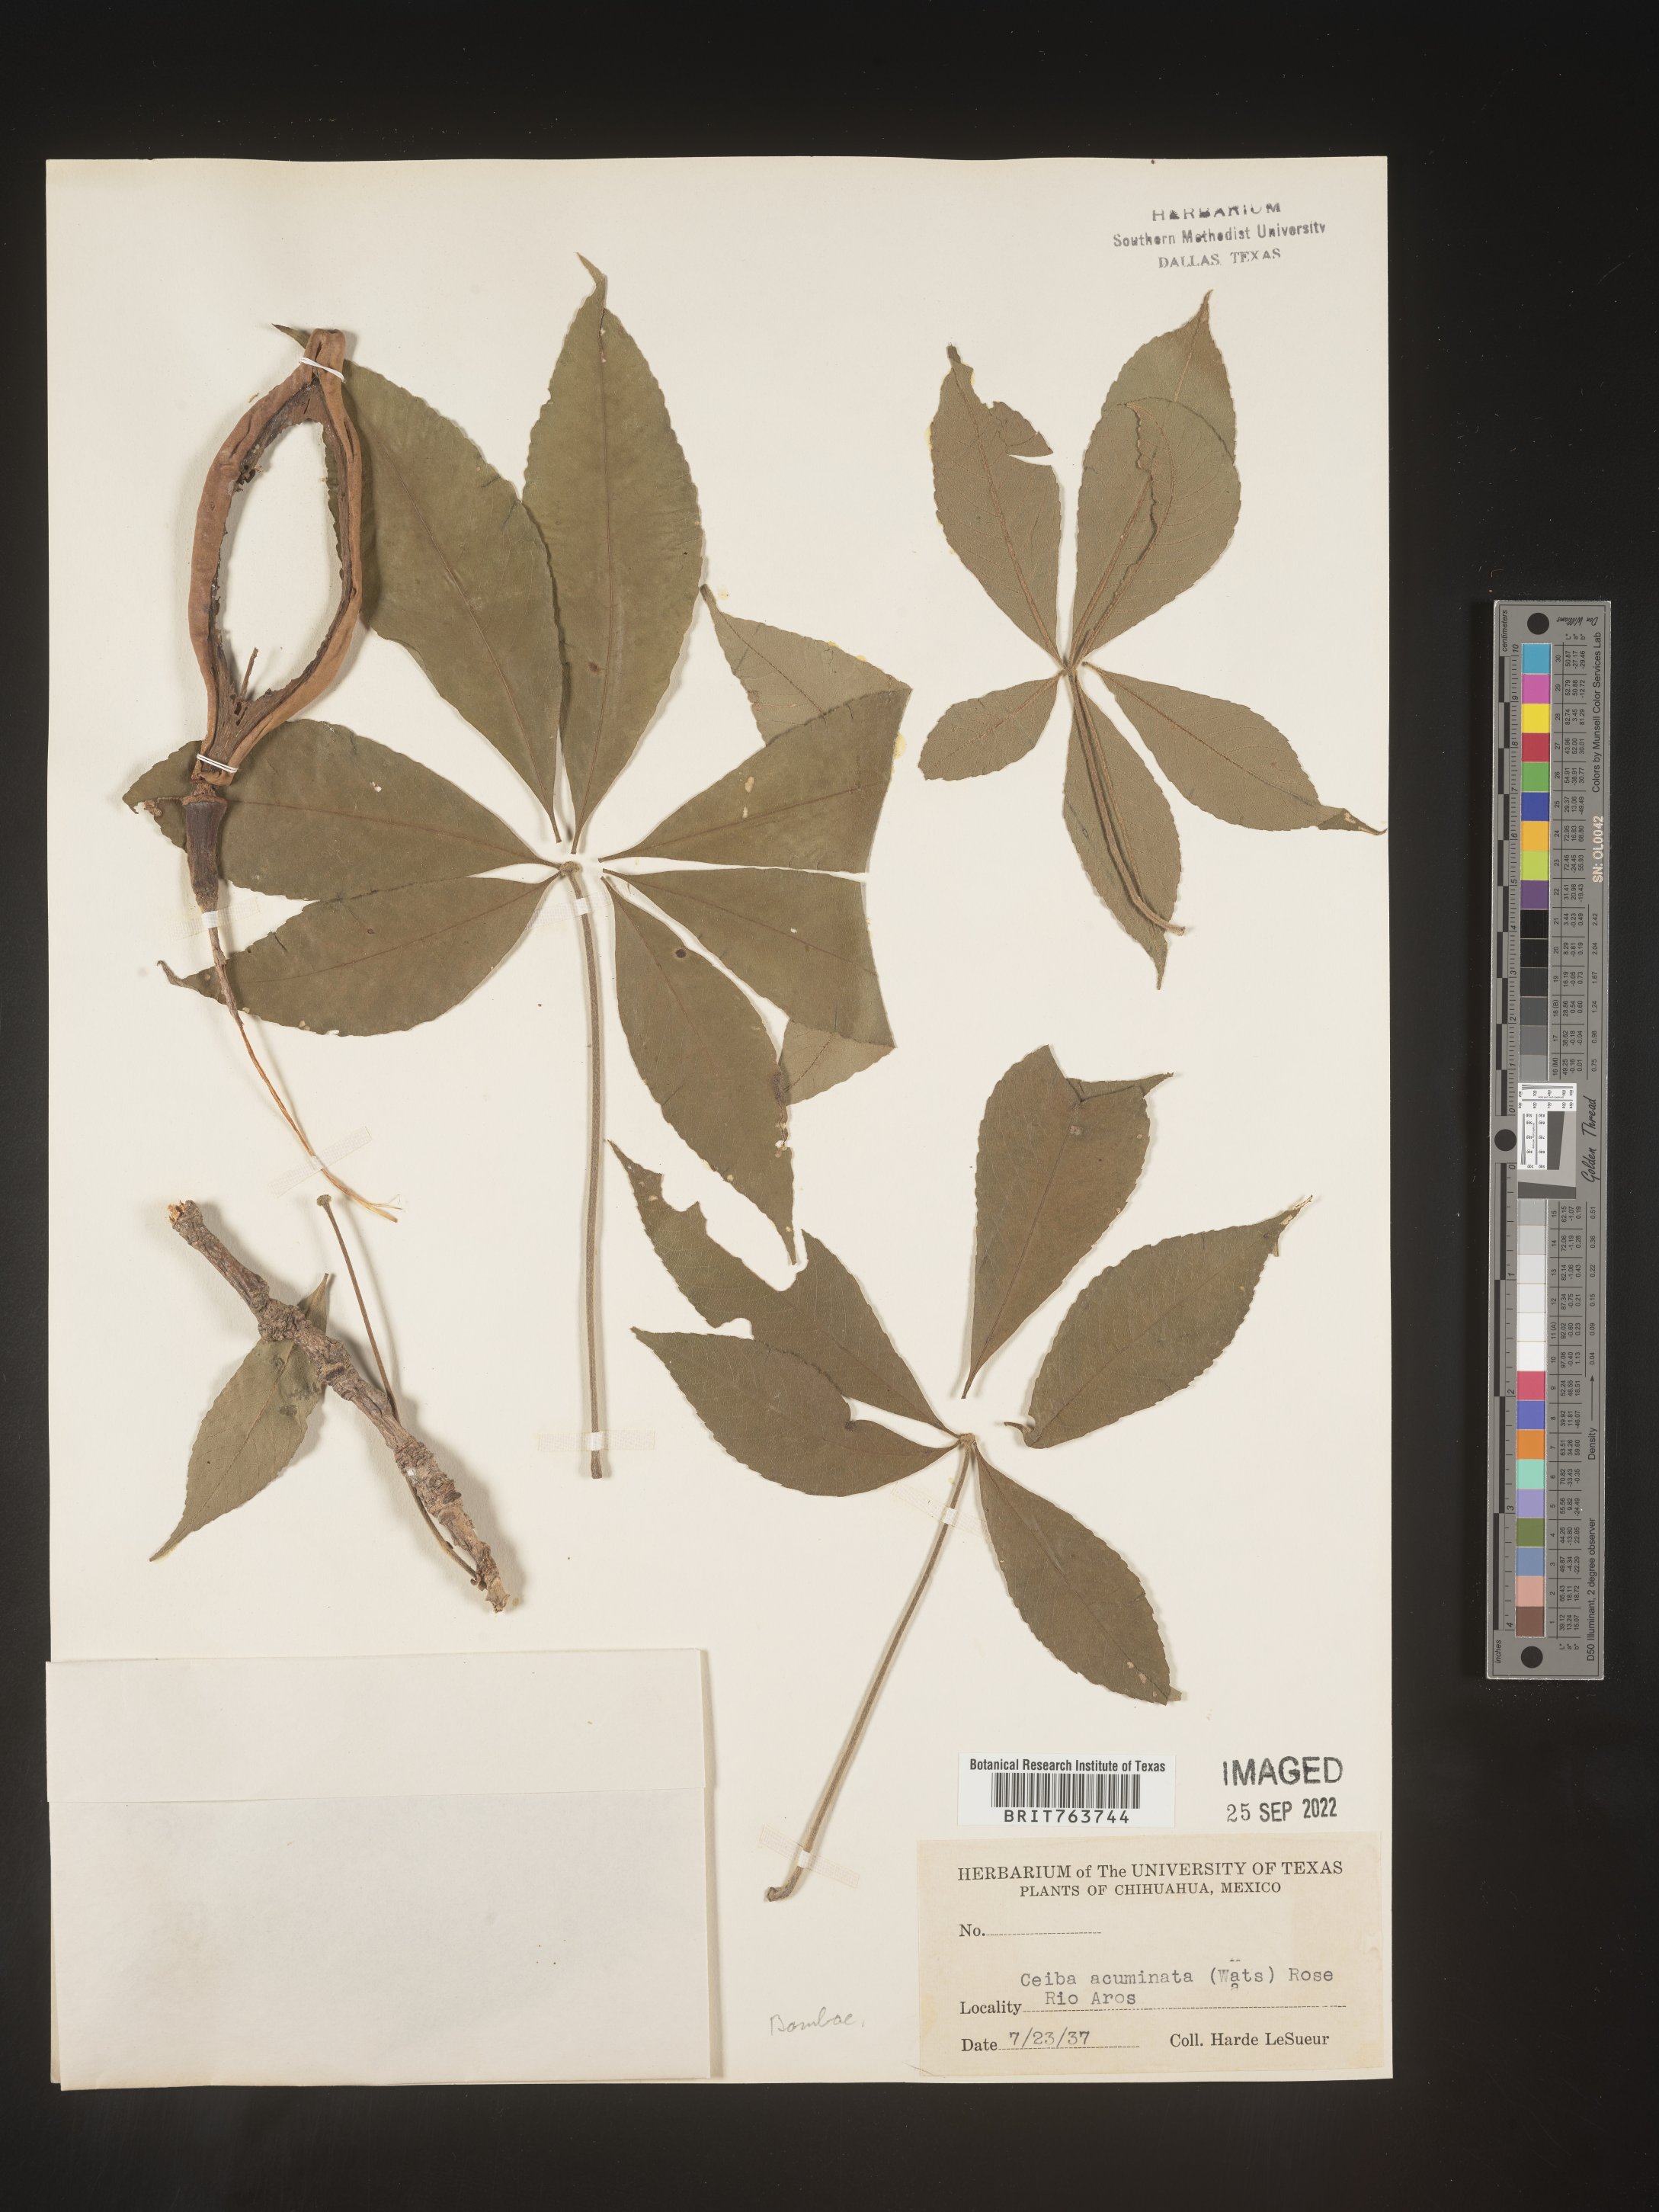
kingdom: Plantae
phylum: Tracheophyta
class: Magnoliopsida
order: Malvales
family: Malvaceae
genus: Ceiba
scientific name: Ceiba
